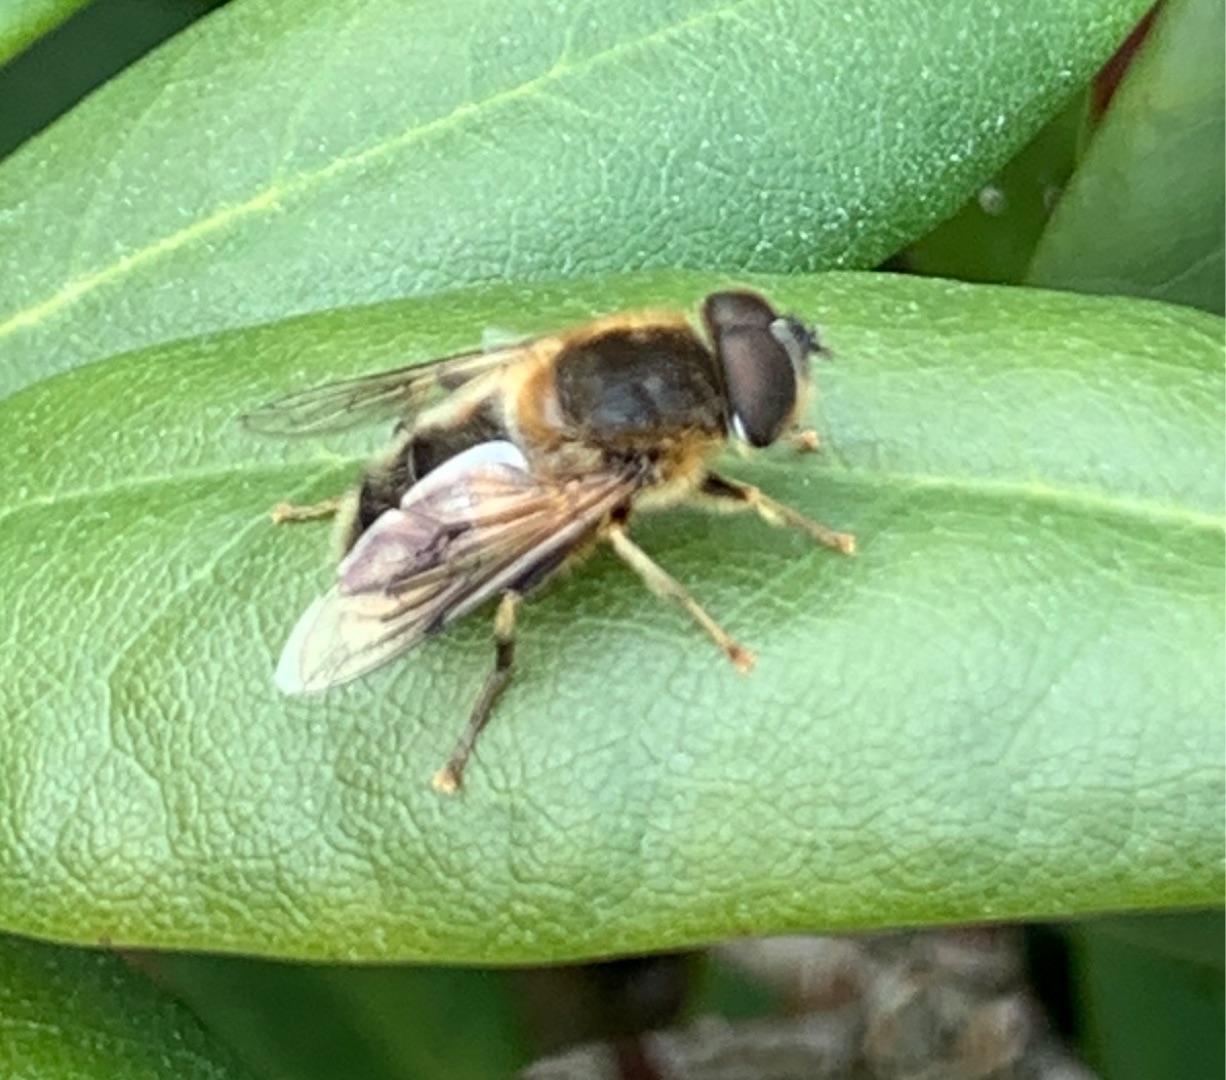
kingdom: Animalia
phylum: Arthropoda
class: Insecta
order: Diptera
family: Syrphidae
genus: Eristalis
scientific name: Eristalis pertinax
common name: Gulfodet dyndflue
